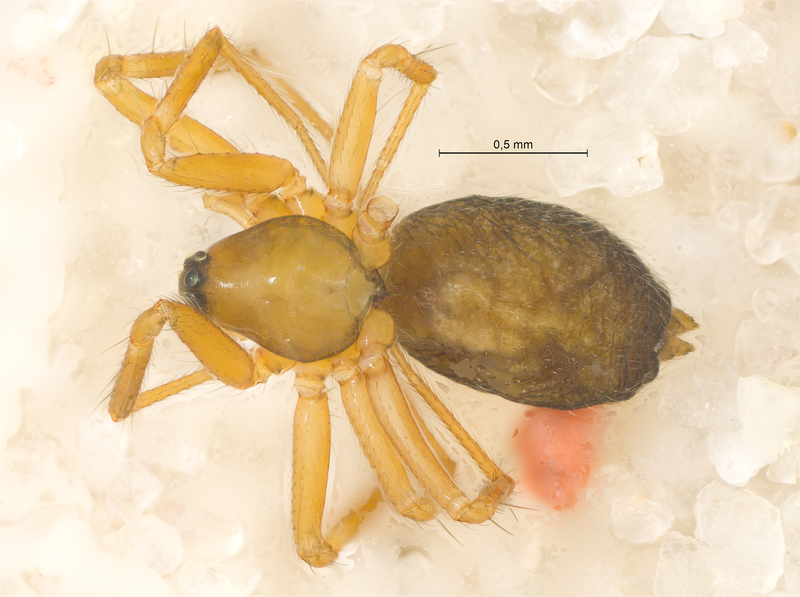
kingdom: Animalia
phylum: Arthropoda
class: Arachnida
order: Araneae
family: Linyphiidae
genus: Agyneta
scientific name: Agyneta mollis
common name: Thin weblet
